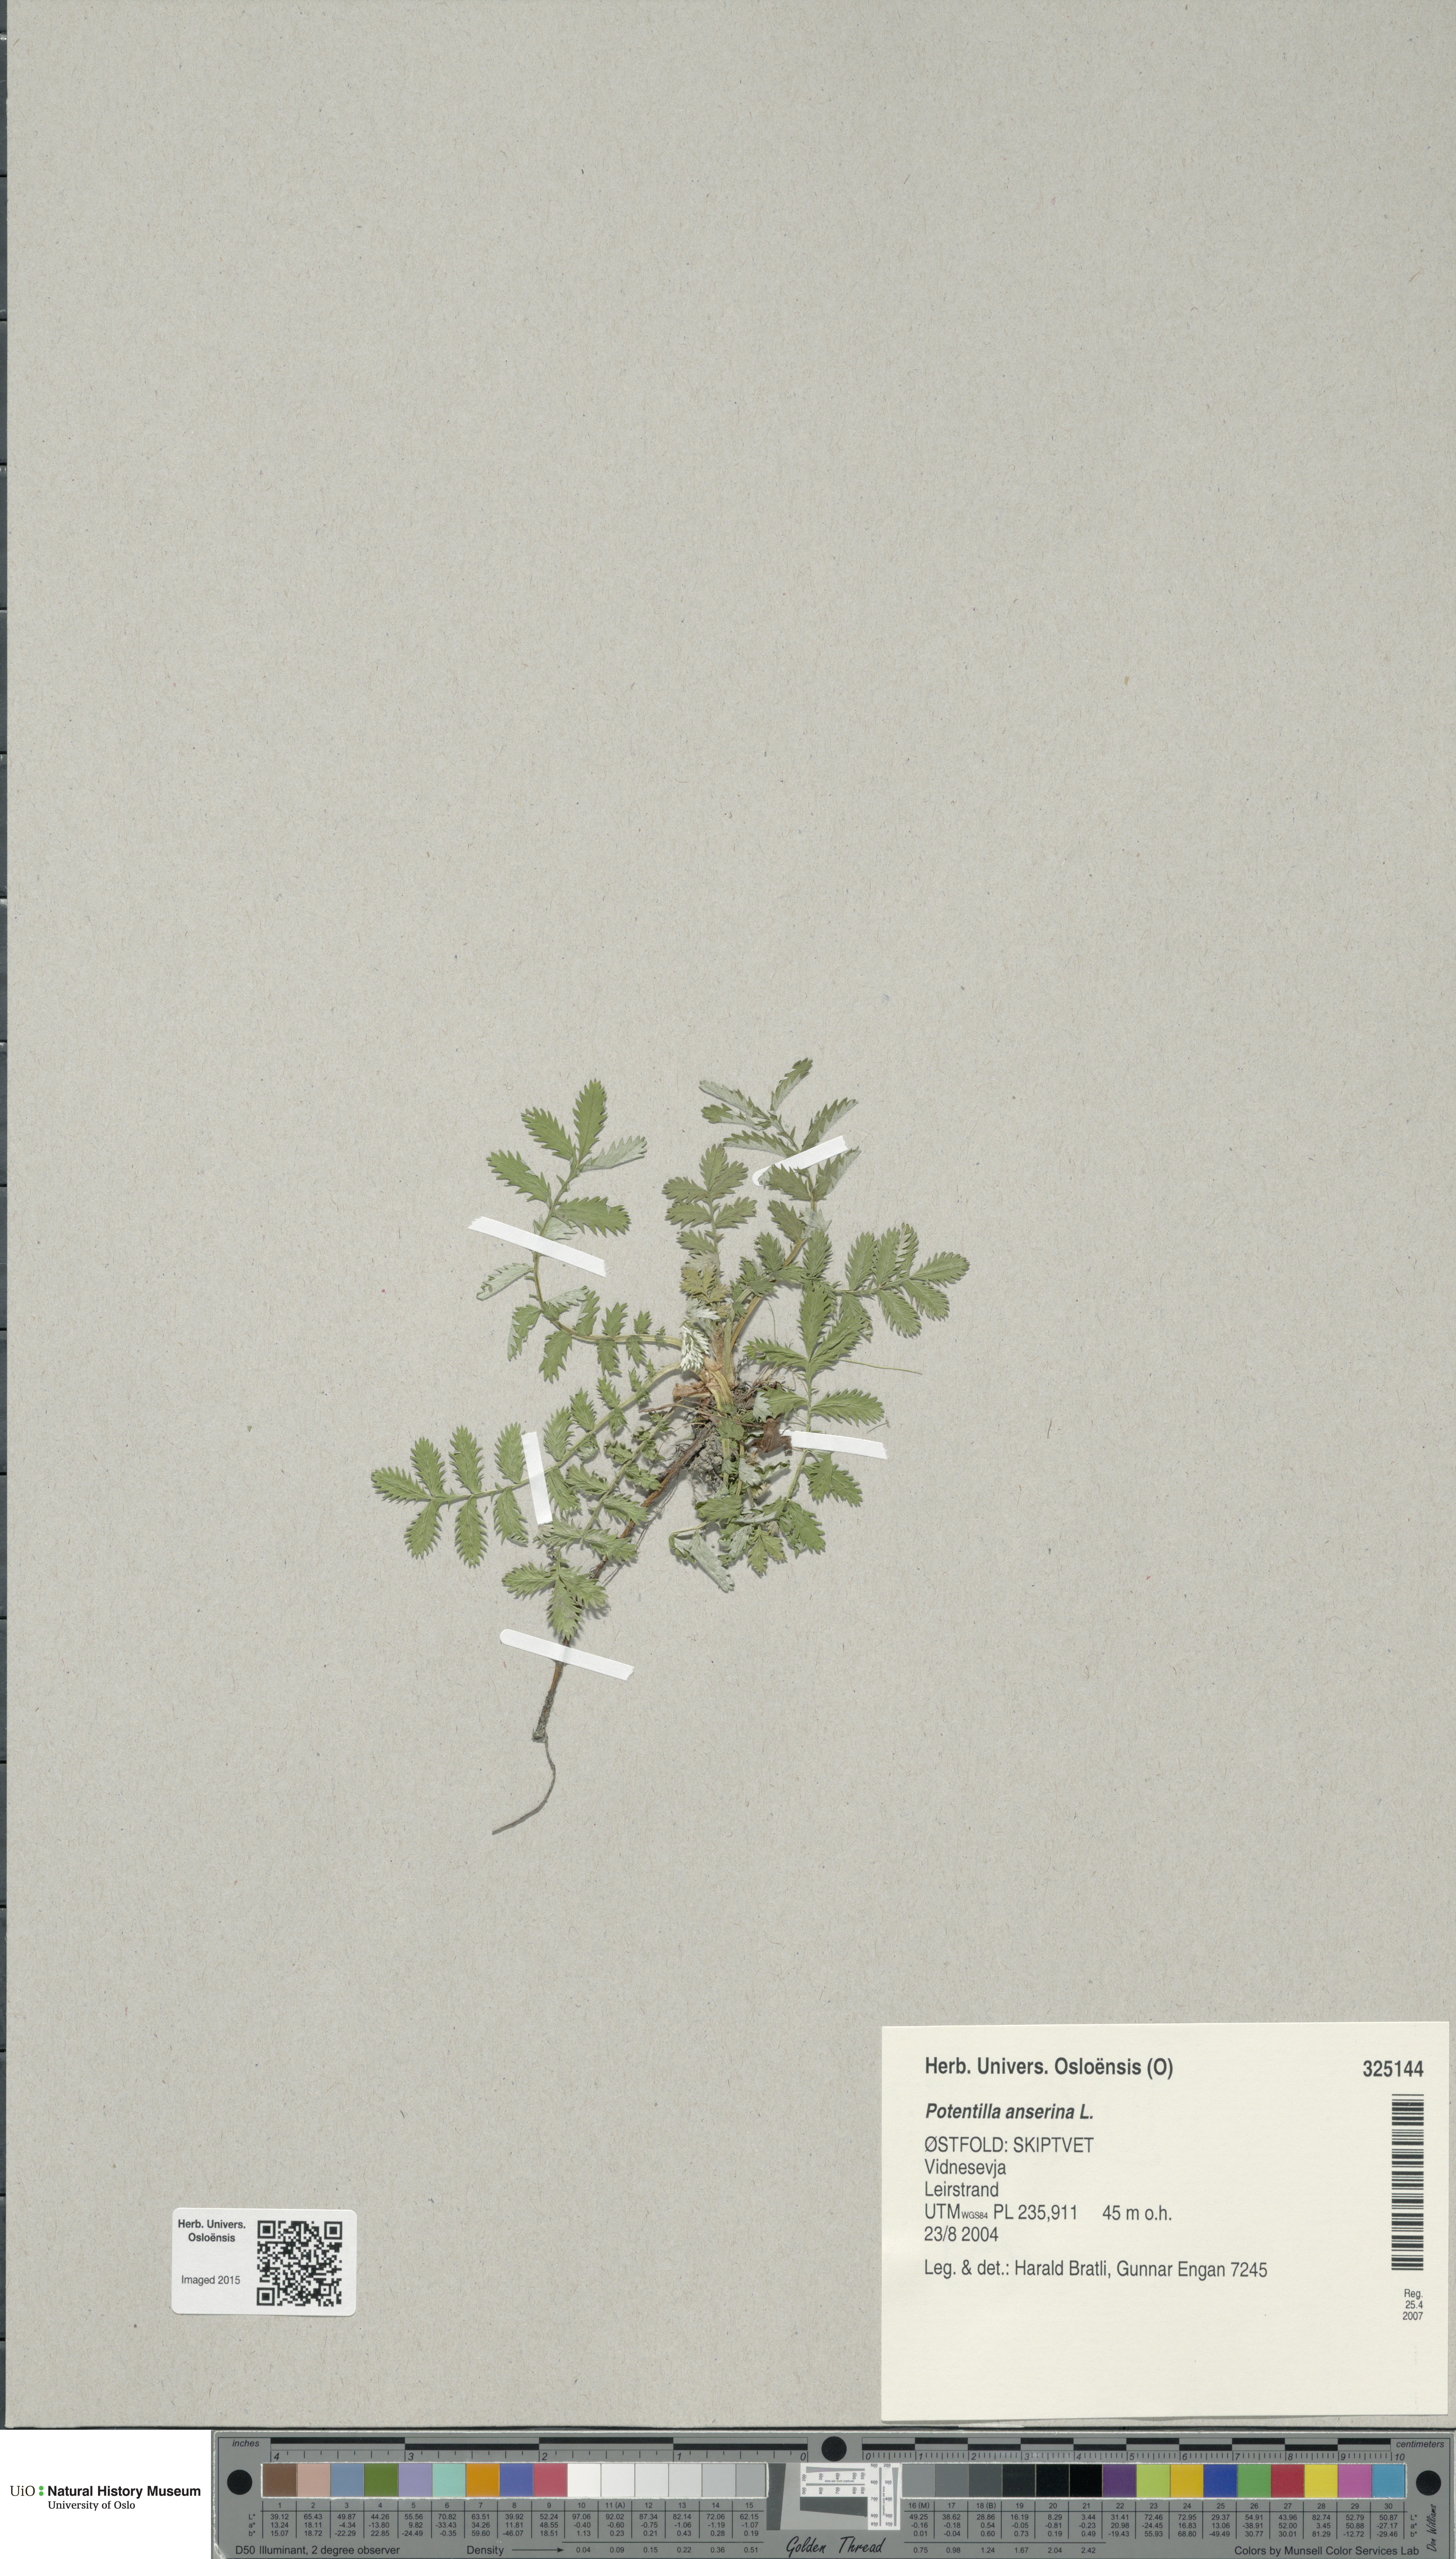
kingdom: Plantae
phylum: Tracheophyta
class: Magnoliopsida
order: Rosales
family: Rosaceae
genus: Argentina
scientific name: Argentina anserina
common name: Common silverweed
